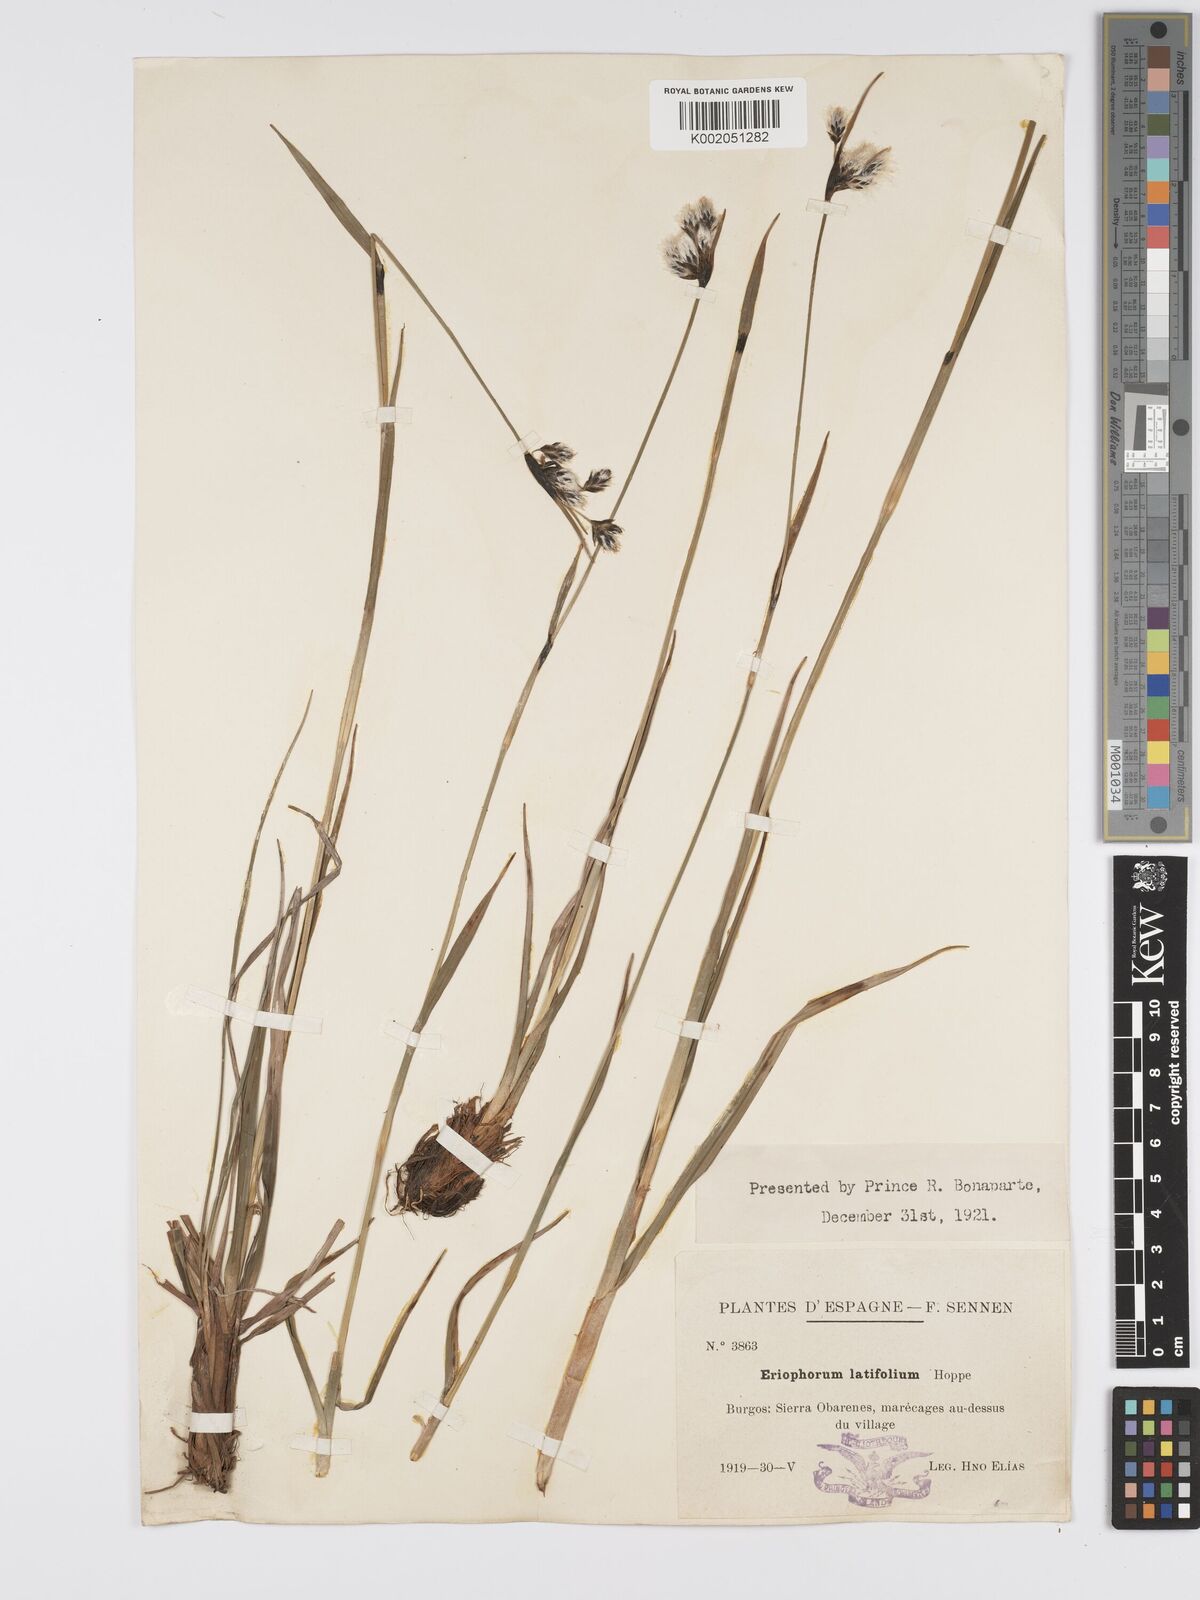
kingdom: Plantae
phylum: Tracheophyta
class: Liliopsida
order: Poales
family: Cyperaceae
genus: Eriophorum
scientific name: Eriophorum latifolium
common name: Broad-leaved cottongrass
